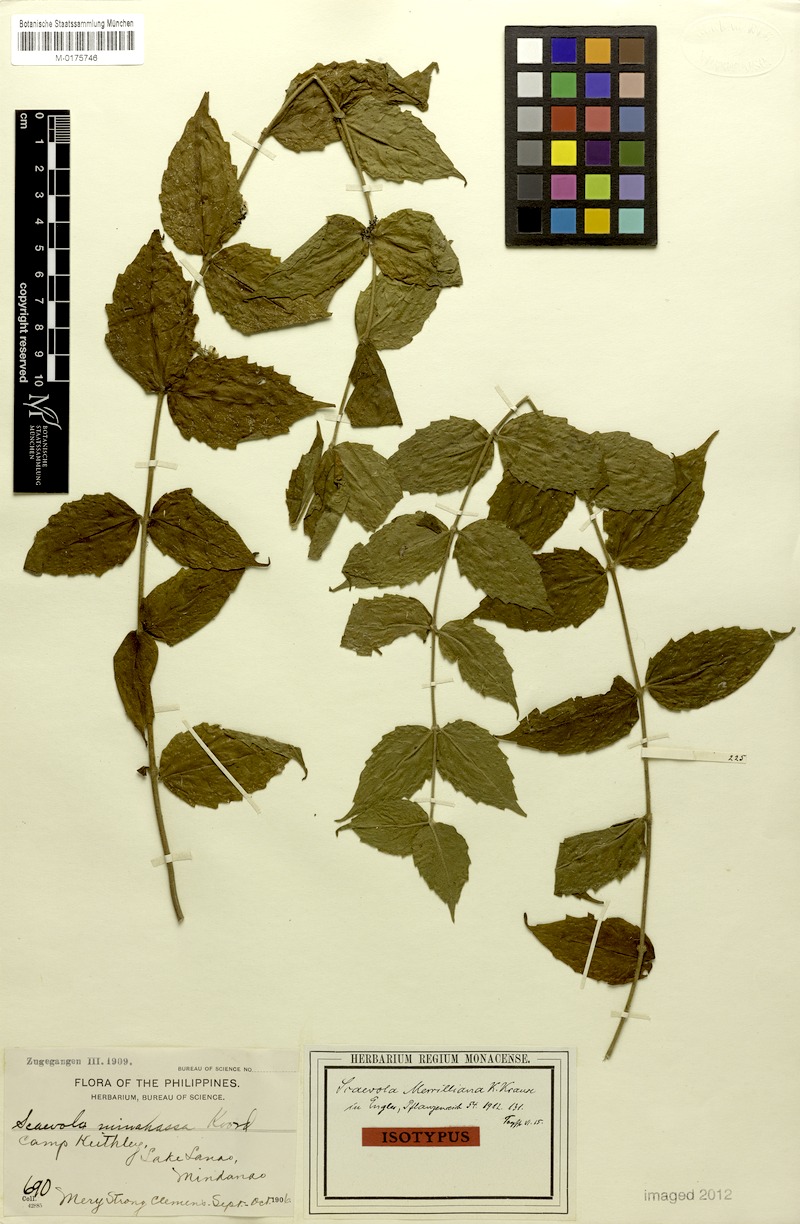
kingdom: Plantae
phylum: Tracheophyta
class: Magnoliopsida
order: Asterales
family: Goodeniaceae
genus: Scaevola
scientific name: Scaevola oppositifolia
